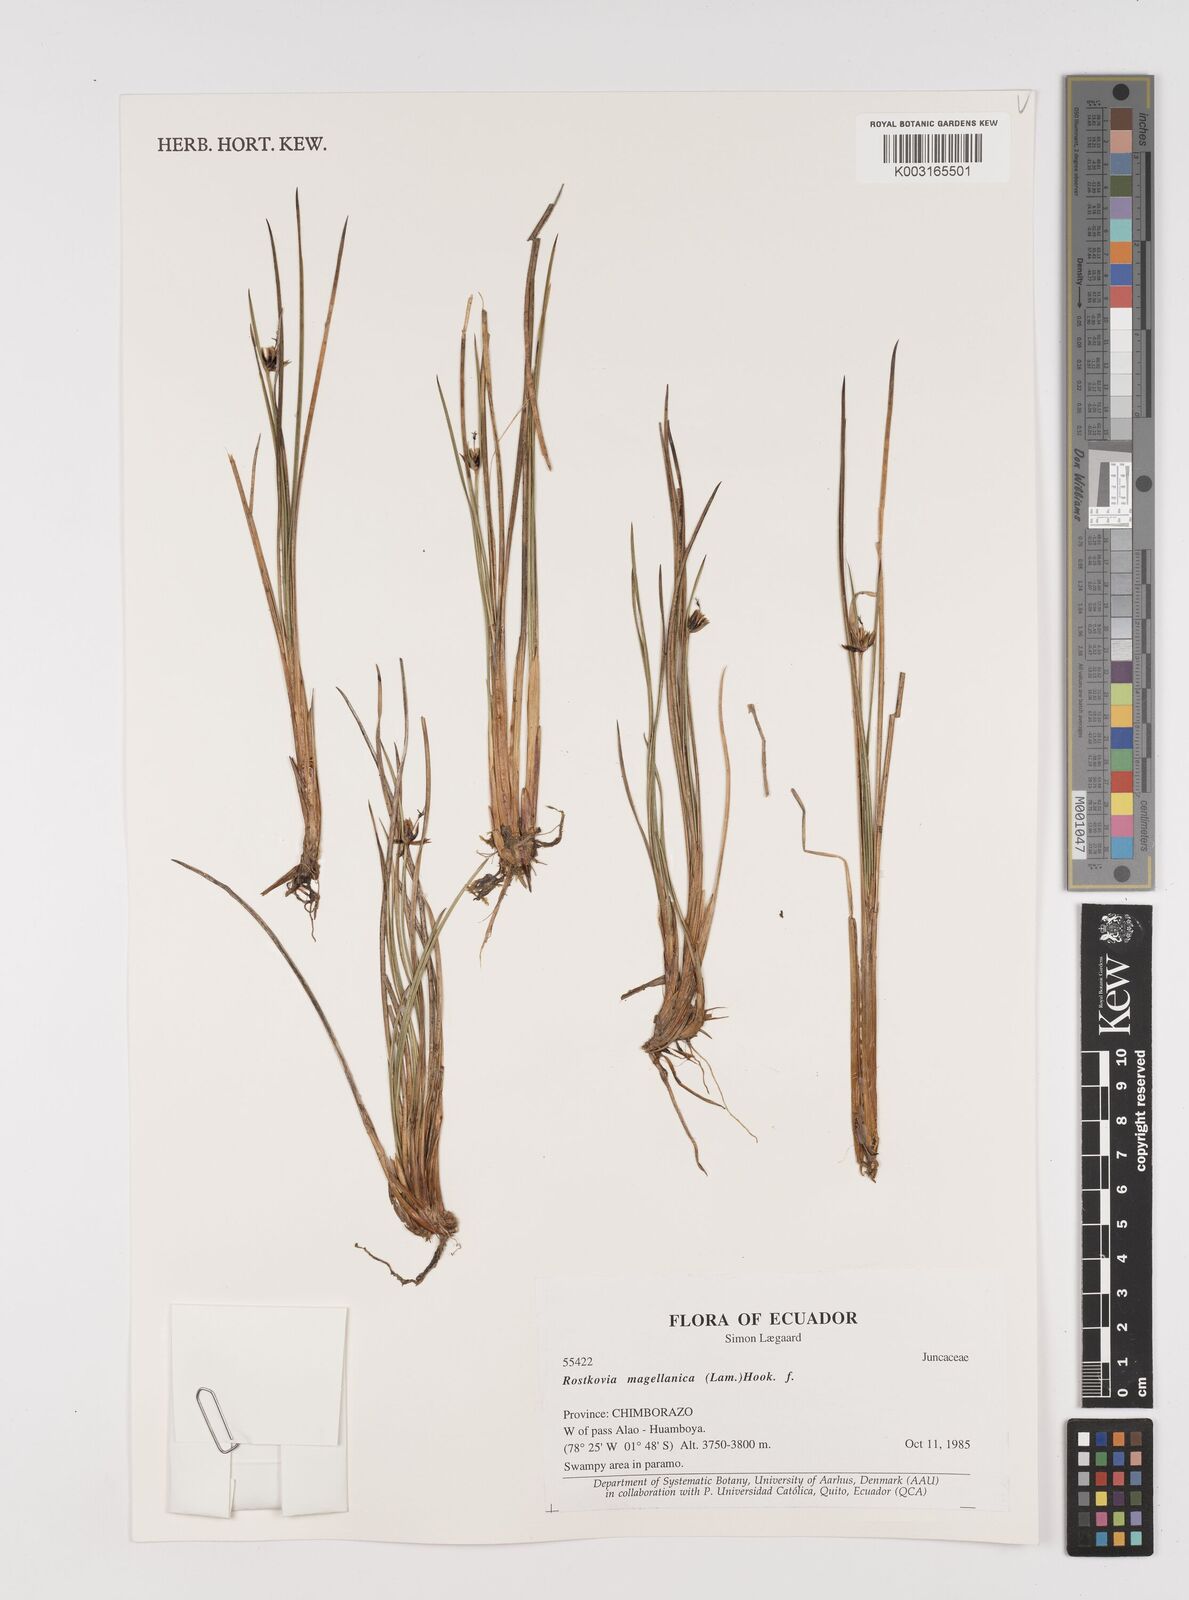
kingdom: Plantae
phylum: Tracheophyta
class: Liliopsida
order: Poales
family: Juncaceae
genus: Rostkovia
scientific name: Rostkovia magellanica
